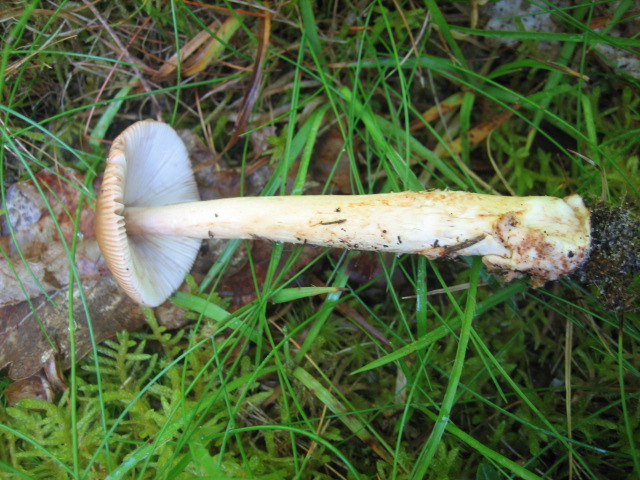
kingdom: Fungi
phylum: Basidiomycota
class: Agaricomycetes
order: Agaricales
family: Amanitaceae
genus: Amanita
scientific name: Amanita fulva
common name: brun kam-fluesvamp
